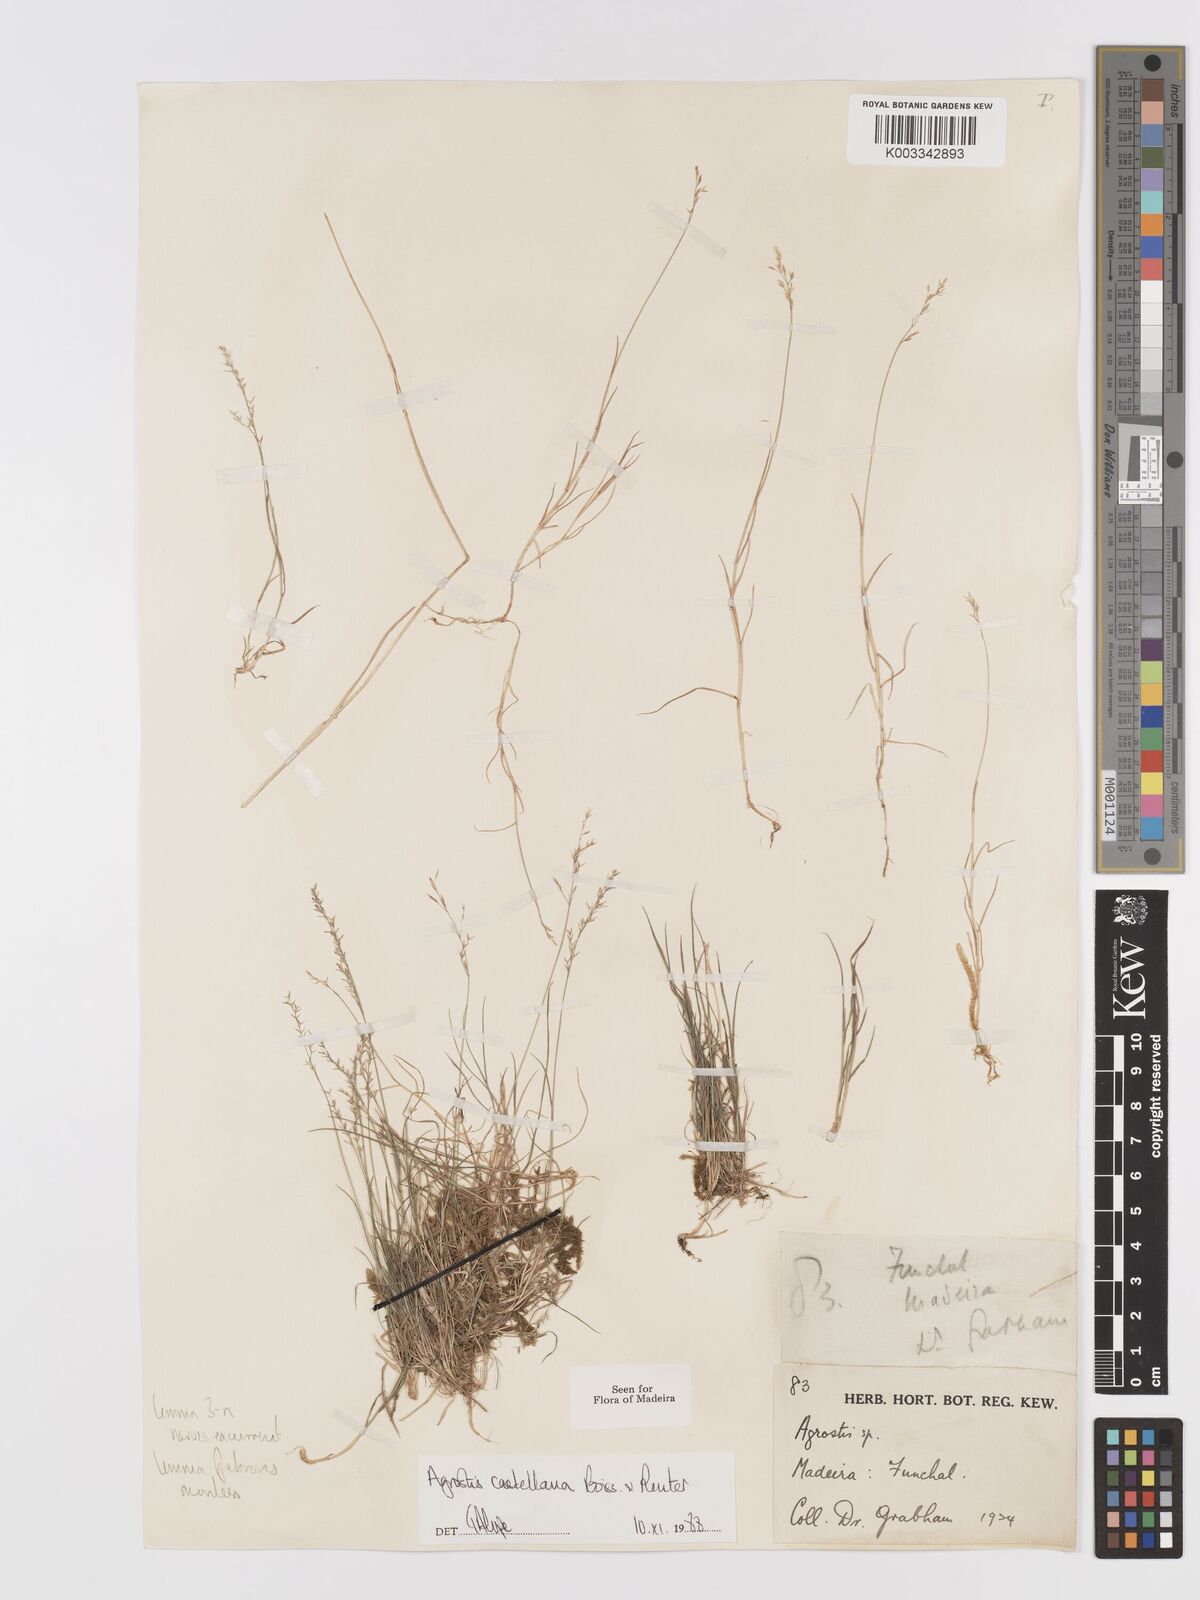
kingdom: Plantae
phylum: Tracheophyta
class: Liliopsida
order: Poales
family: Poaceae
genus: Agrostis
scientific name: Agrostis castellana
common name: Highland bent
